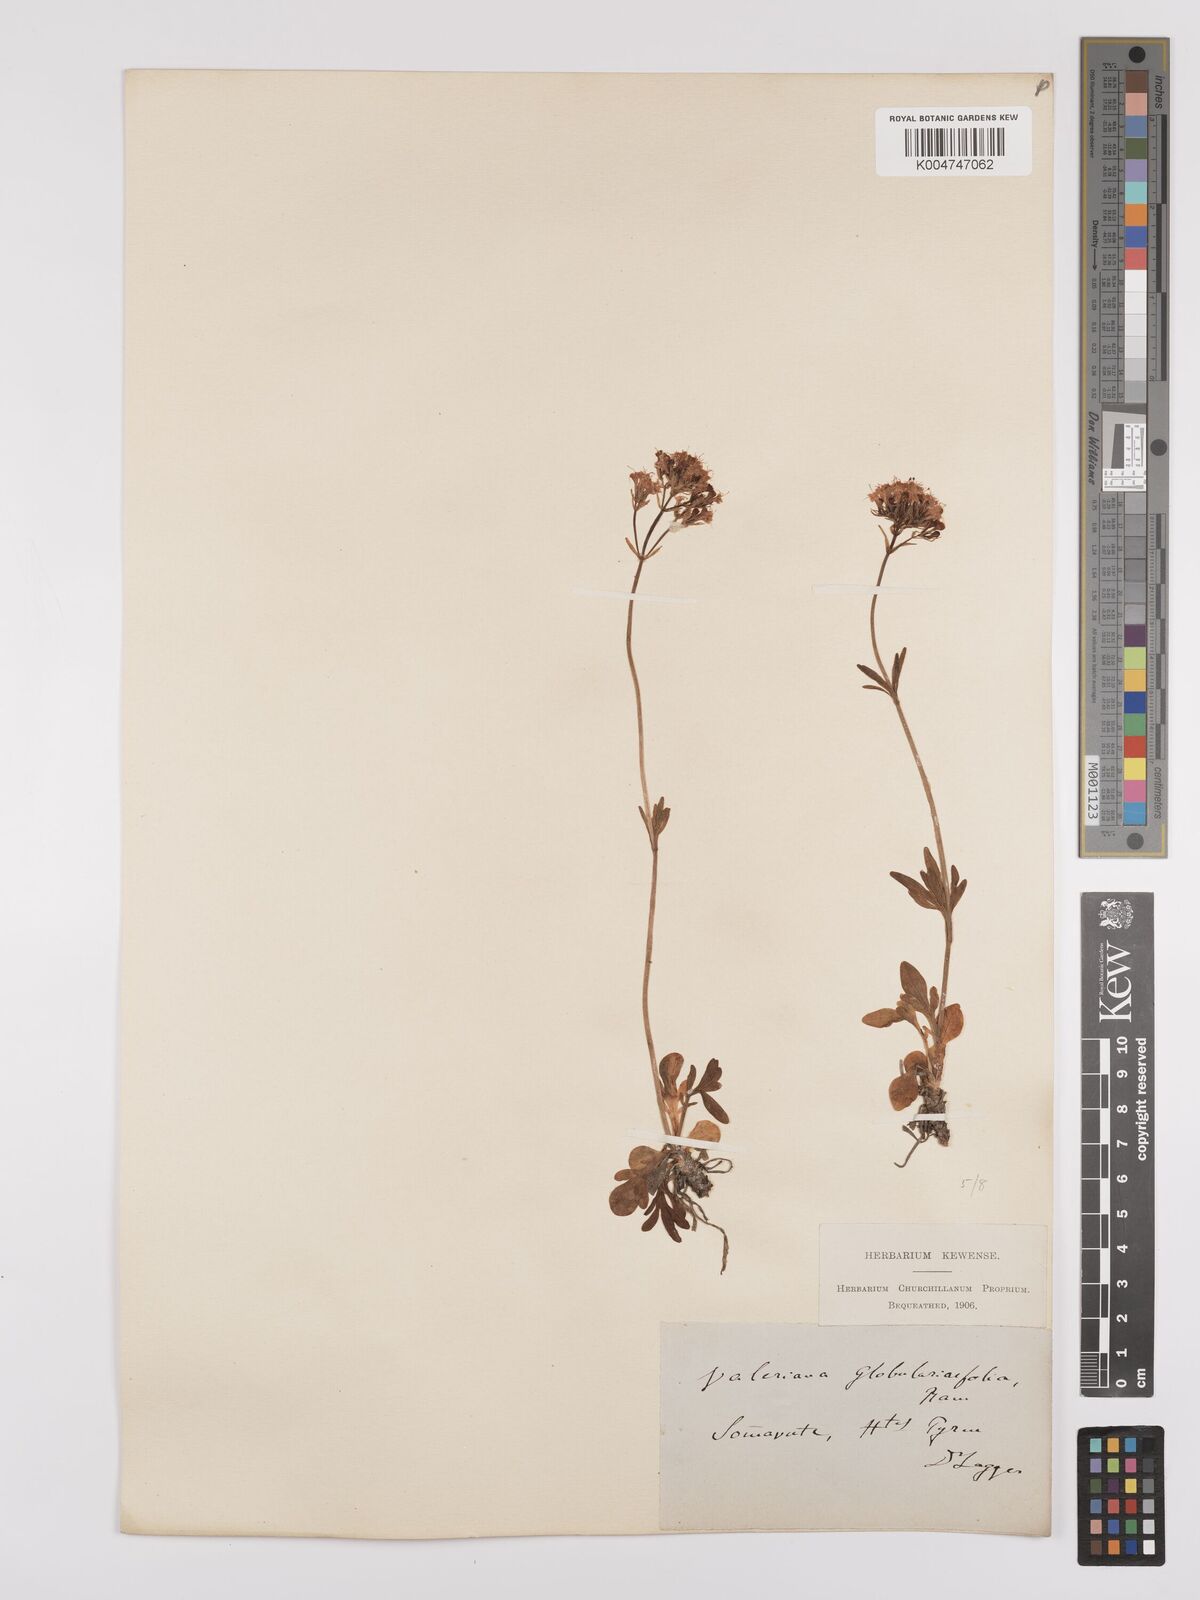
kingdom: Plantae
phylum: Tracheophyta
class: Magnoliopsida
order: Dipsacales
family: Caprifoliaceae
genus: Valeriana
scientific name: Valeriana apula
